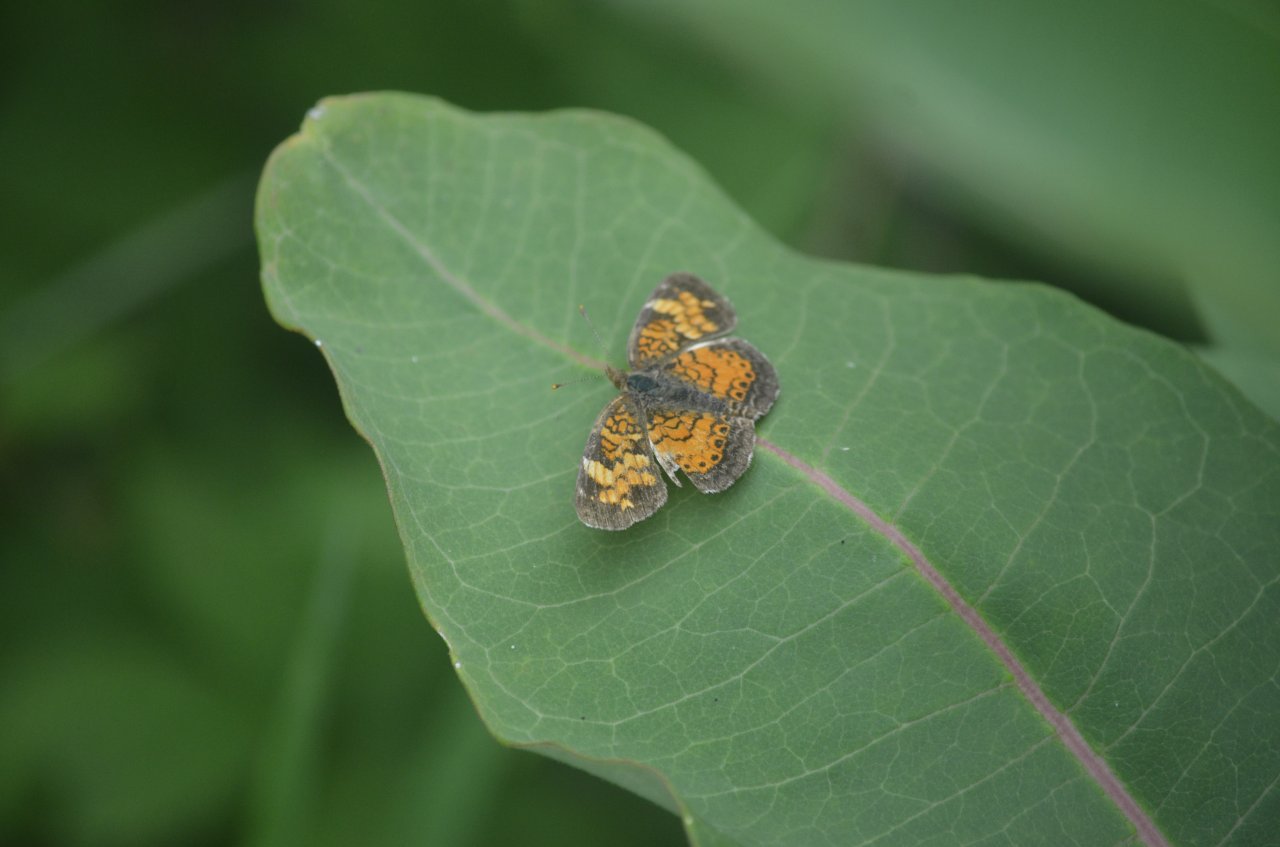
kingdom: Animalia
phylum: Arthropoda
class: Insecta
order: Lepidoptera
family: Nymphalidae
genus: Phyciodes
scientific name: Phyciodes tharos
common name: Northern Crescent
